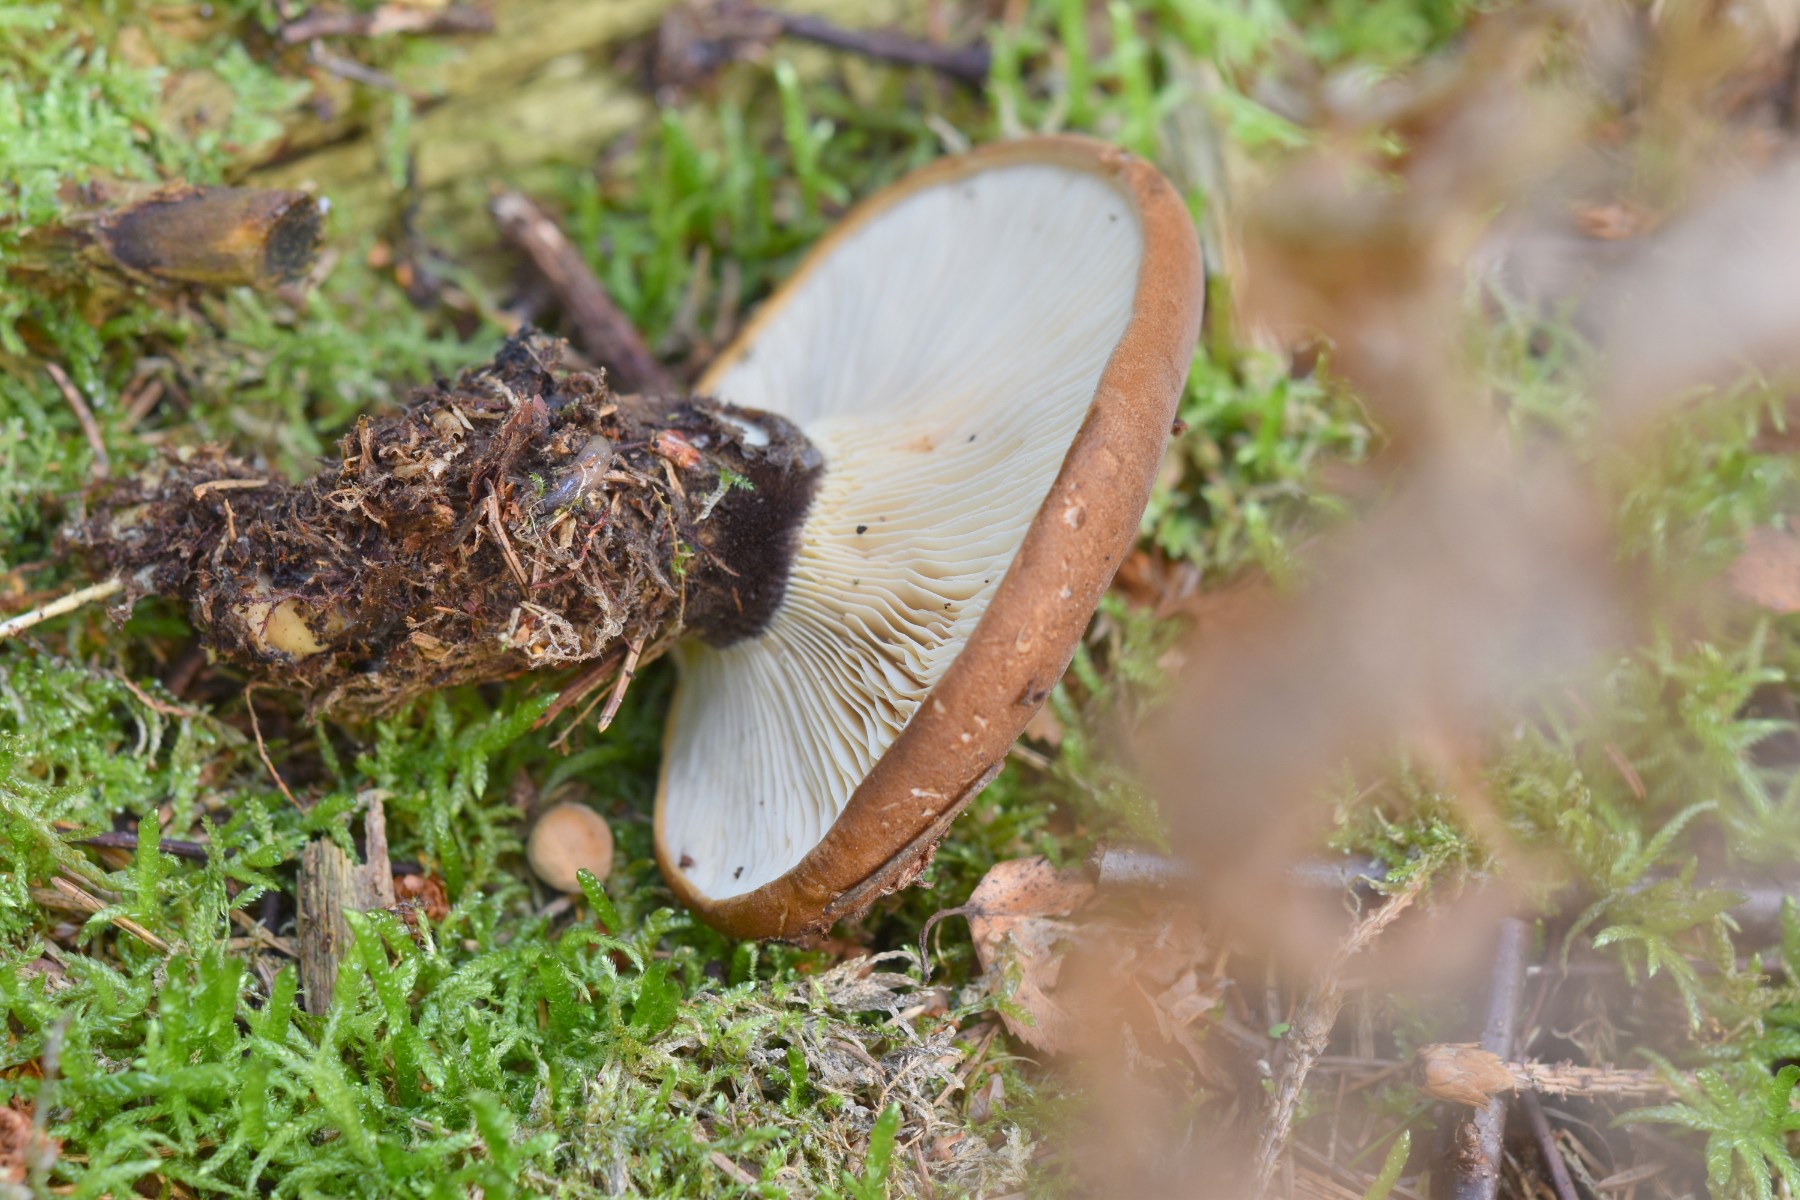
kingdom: Fungi
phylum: Basidiomycota
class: Agaricomycetes
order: Boletales
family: Tapinellaceae
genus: Tapinella
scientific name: Tapinella atrotomentosa
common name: sortfiltet viftesvamp
